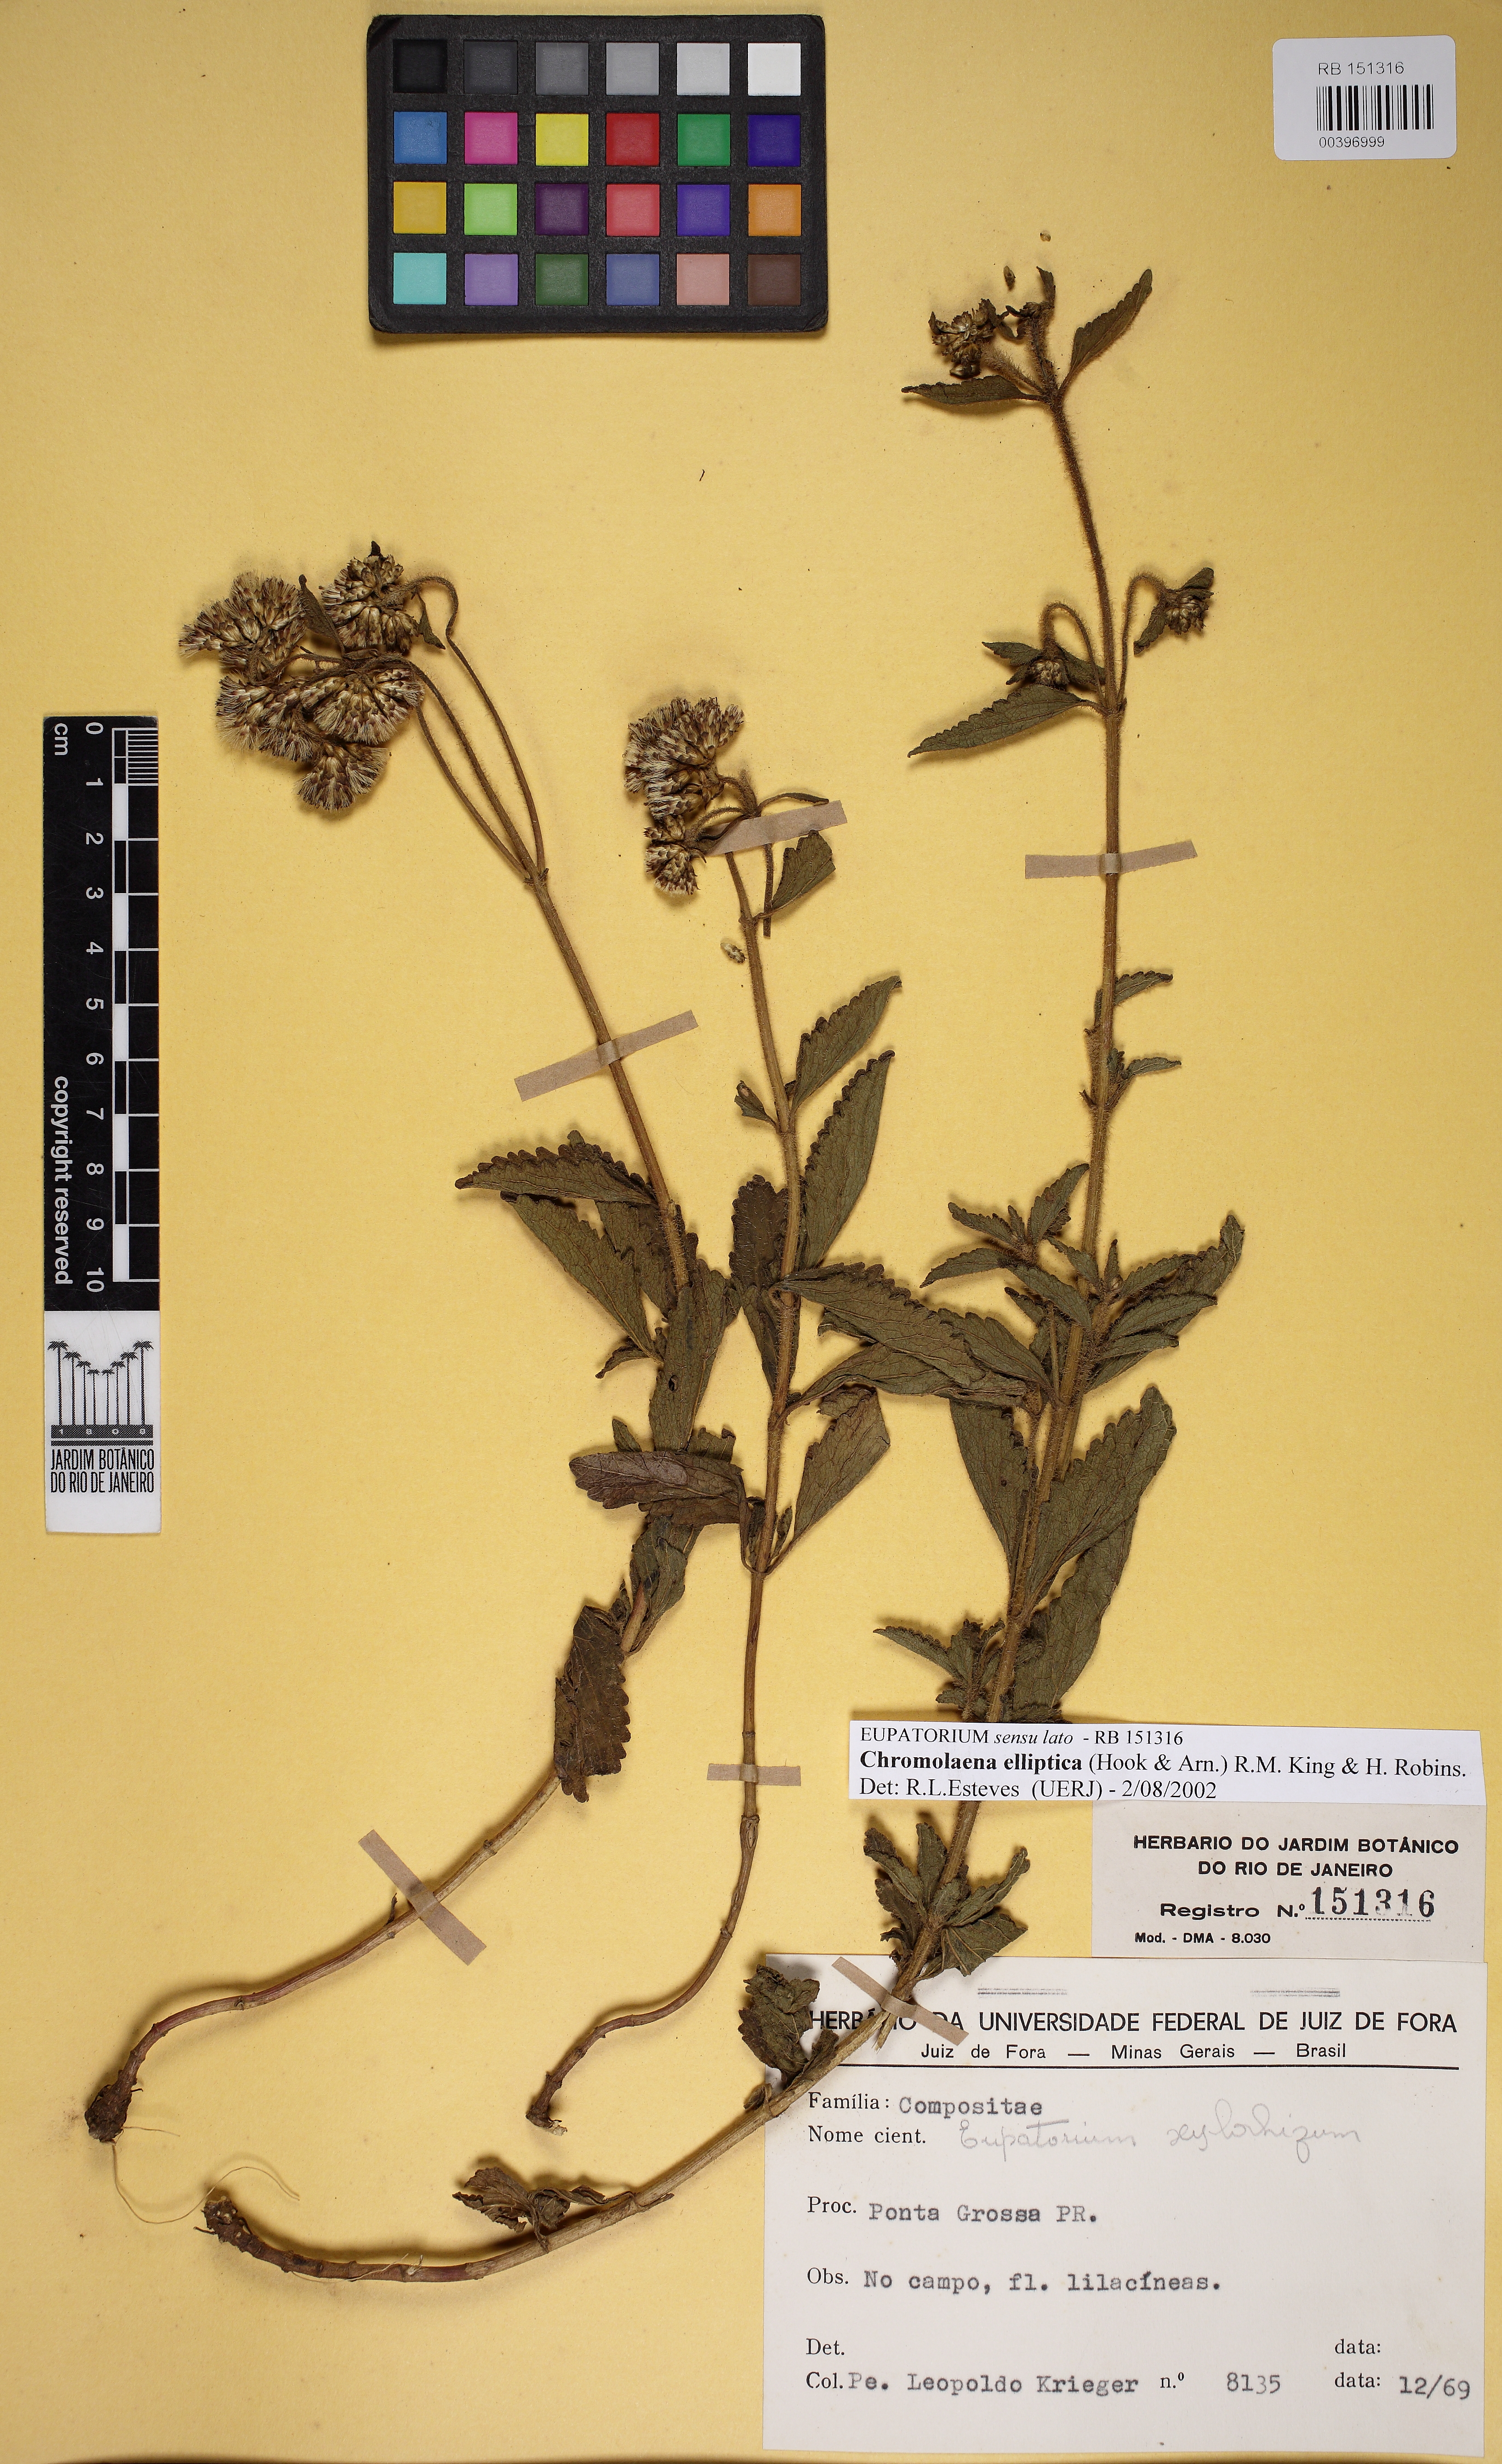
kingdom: Plantae
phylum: Tracheophyta
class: Magnoliopsida
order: Asterales
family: Asteraceae
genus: Chromolaena
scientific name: Chromolaena squarrulosa
